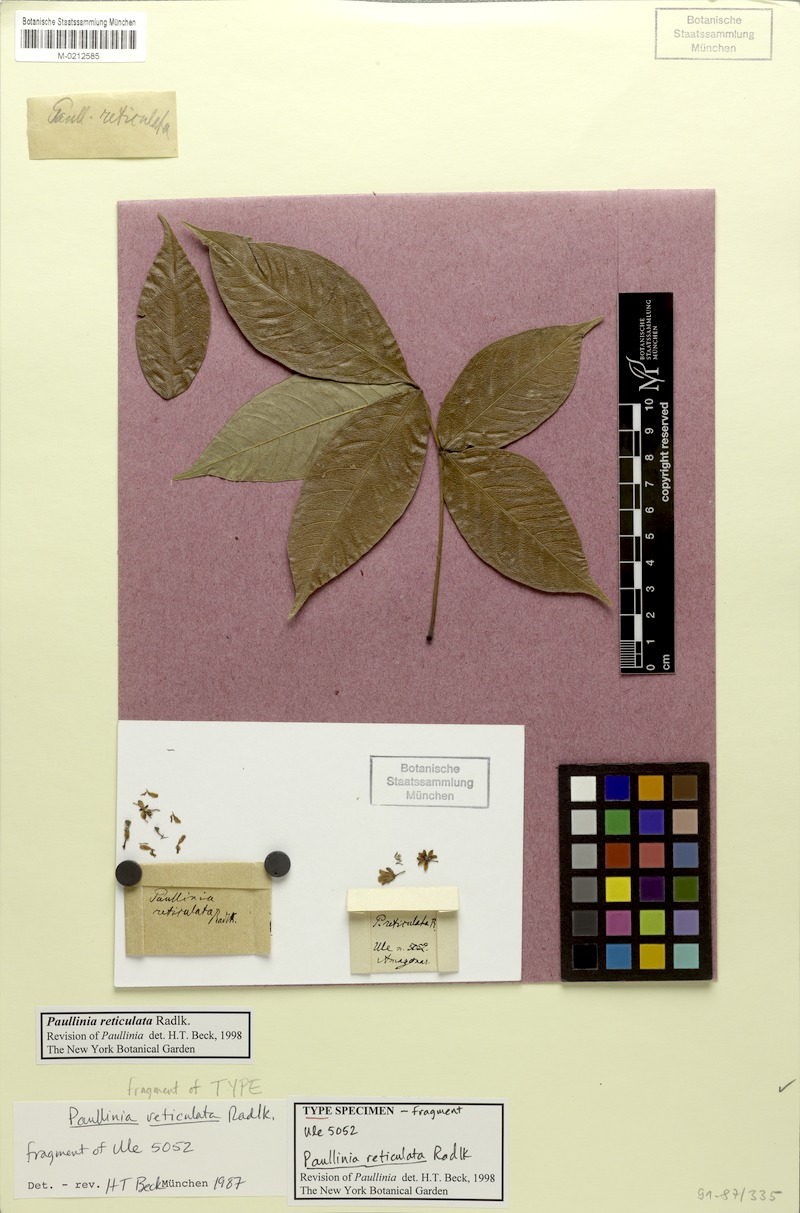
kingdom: Plantae
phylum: Tracheophyta
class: Magnoliopsida
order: Sapindales
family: Sapindaceae
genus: Paullinia
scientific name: Paullinia reticulata
